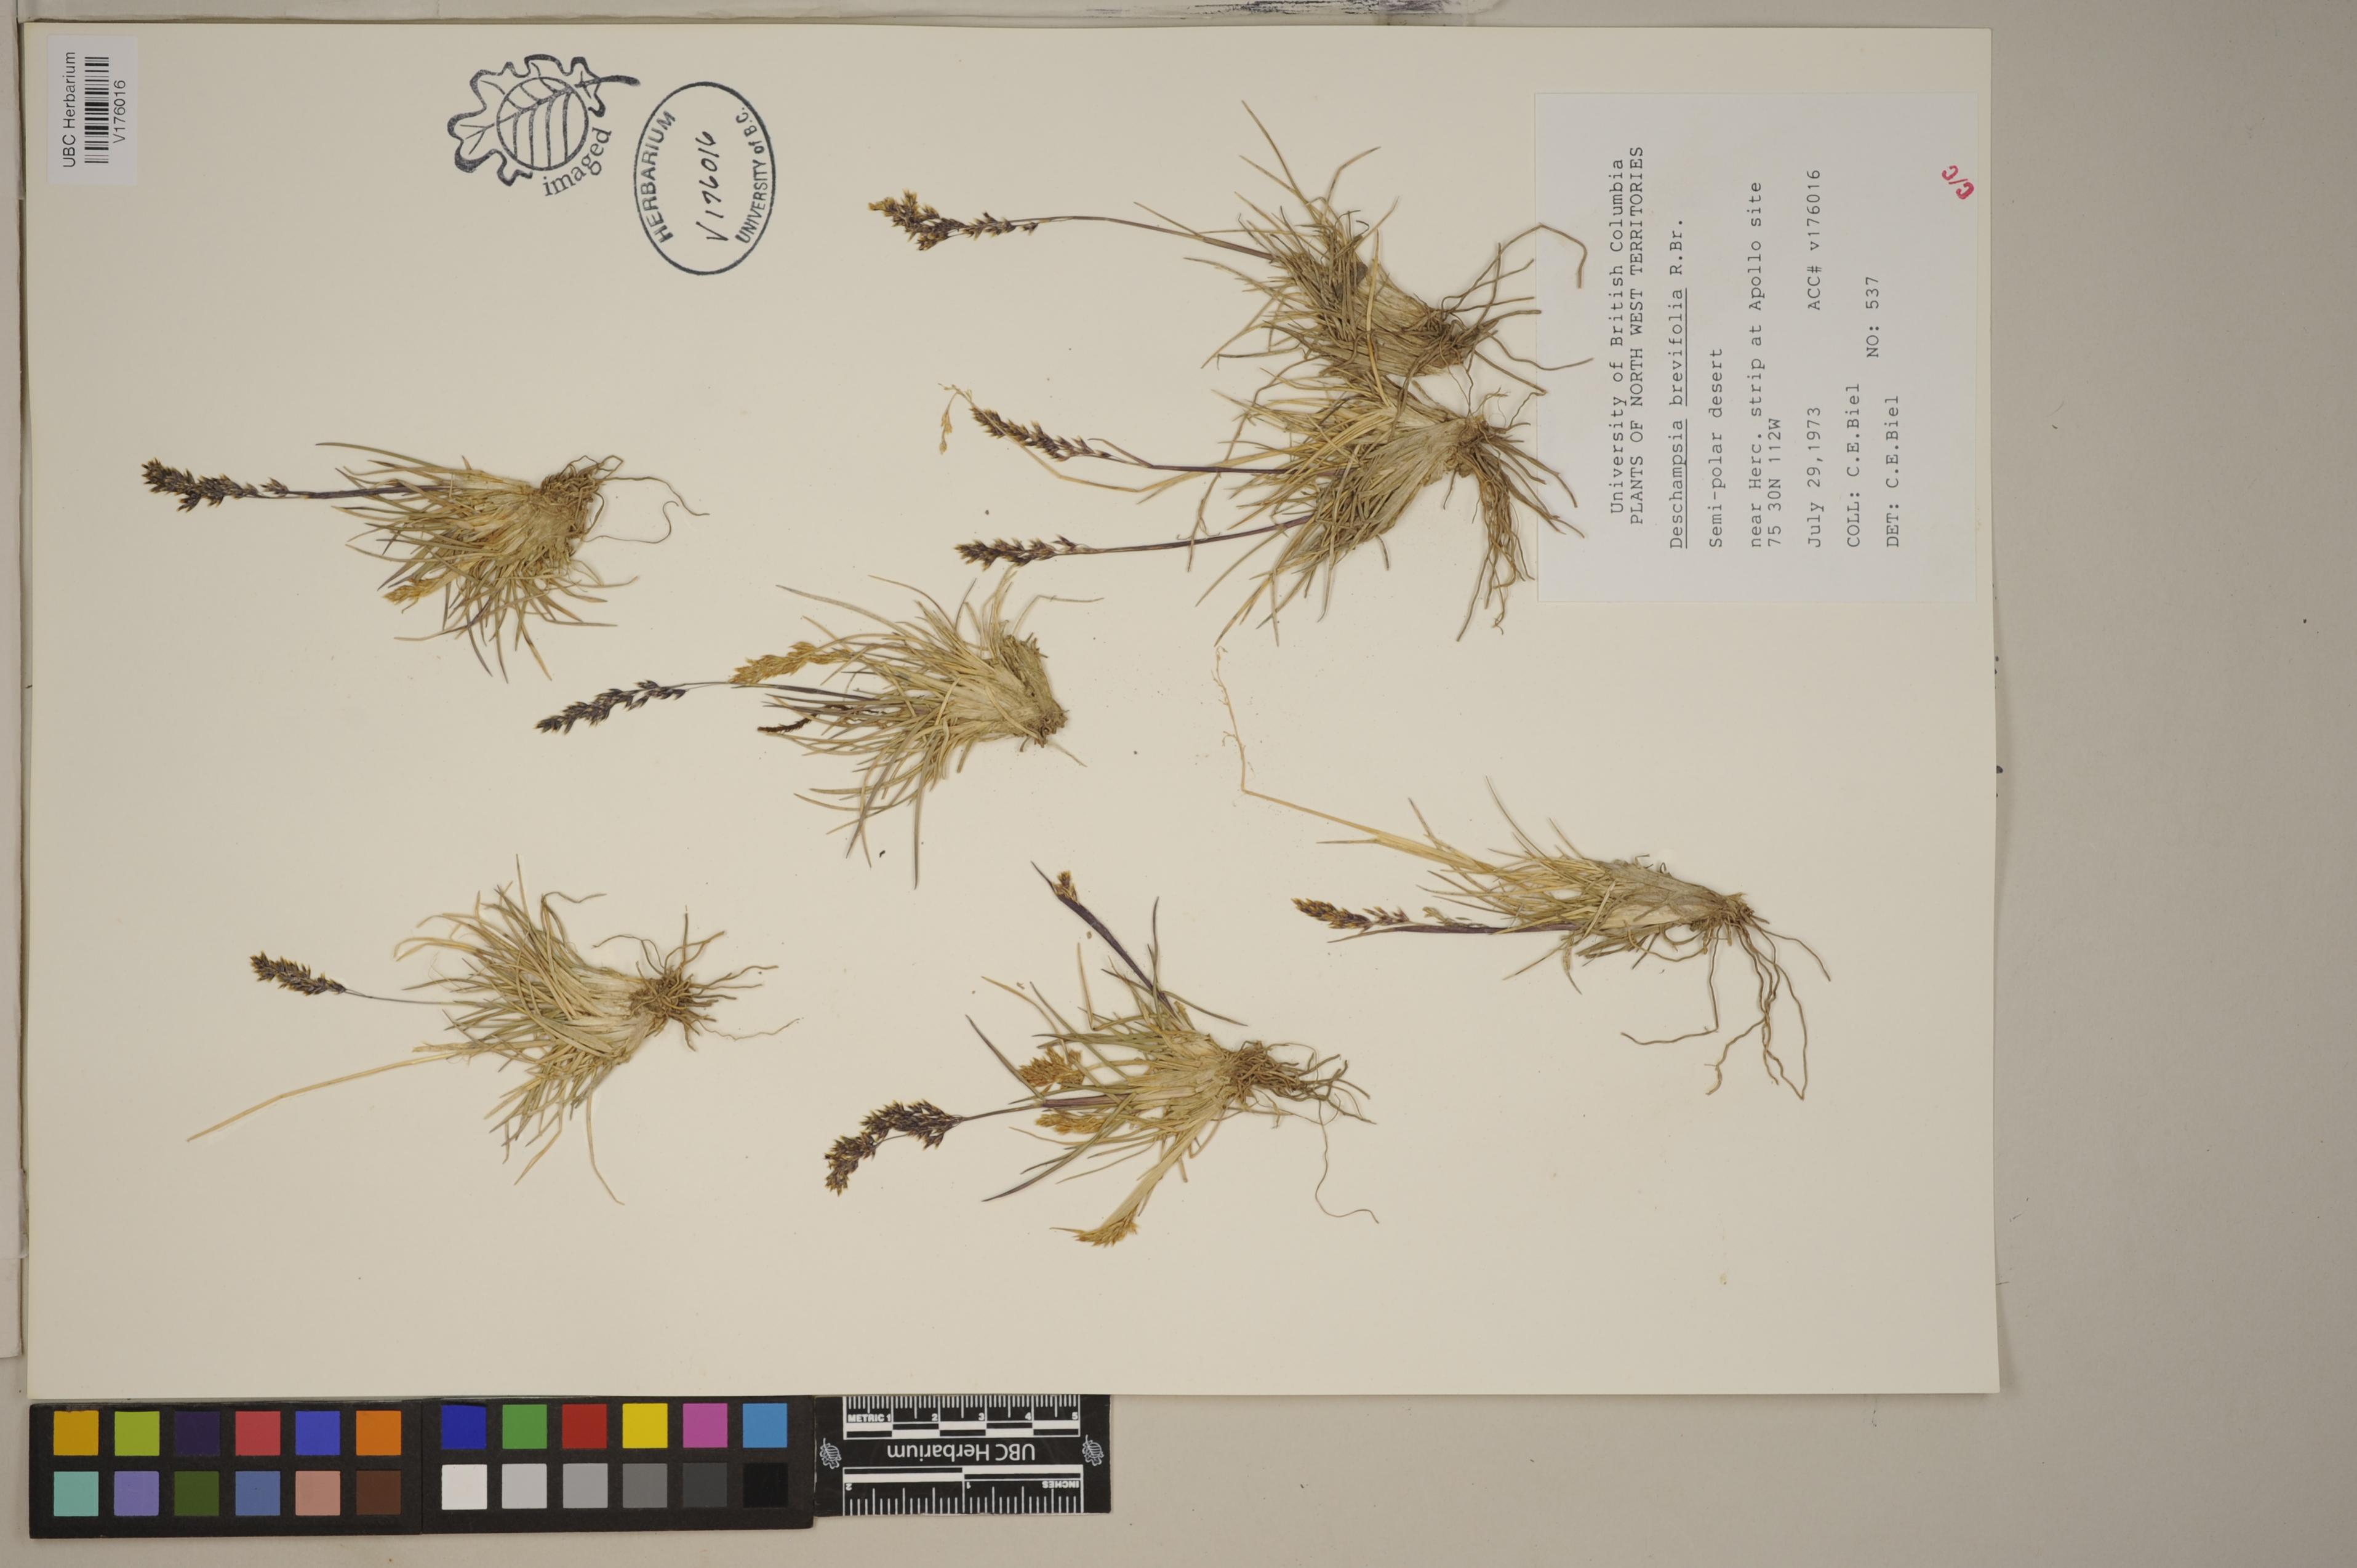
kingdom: Plantae
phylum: Tracheophyta
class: Liliopsida
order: Poales
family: Poaceae
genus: Deschampsia
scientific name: Deschampsia cespitosa
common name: Tufted hair-grass
